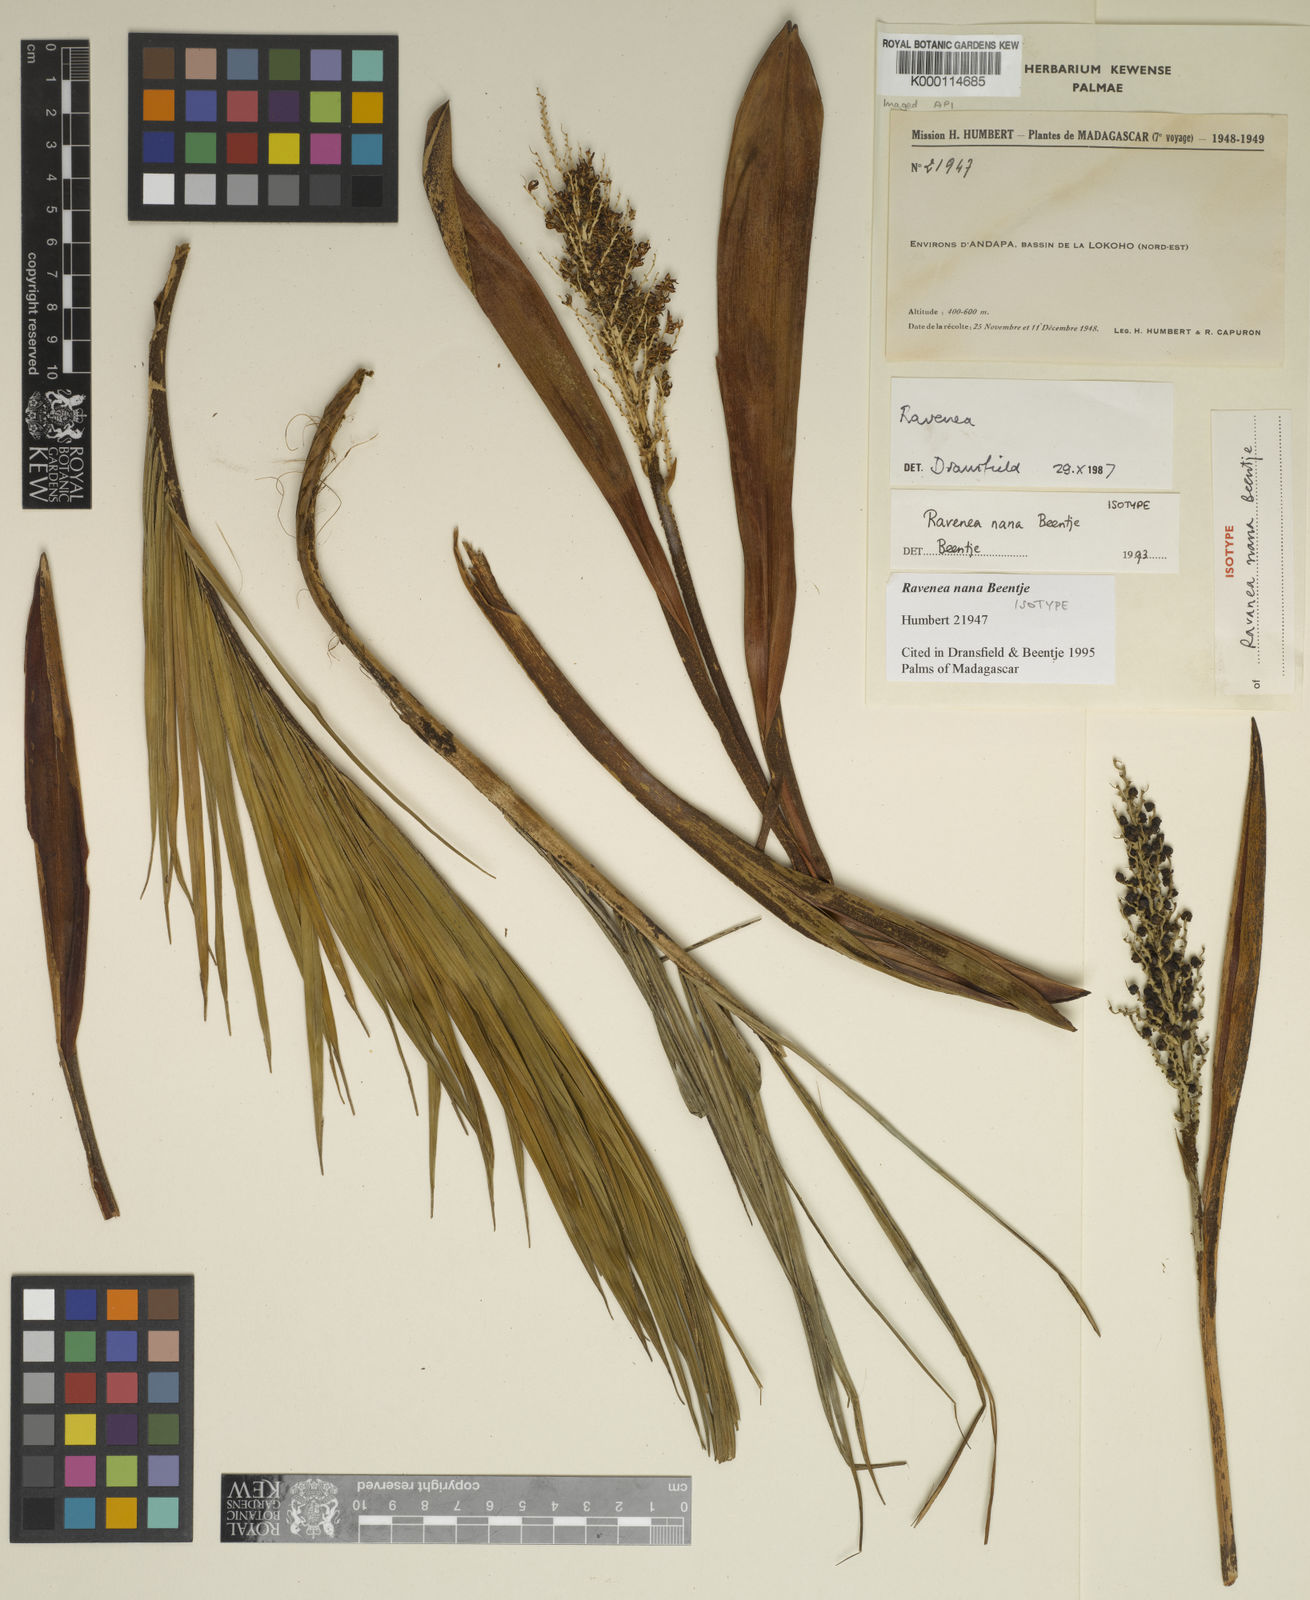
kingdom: Plantae
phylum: Tracheophyta
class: Liliopsida
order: Arecales
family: Arecaceae
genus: Ravenea
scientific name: Ravenea nana
